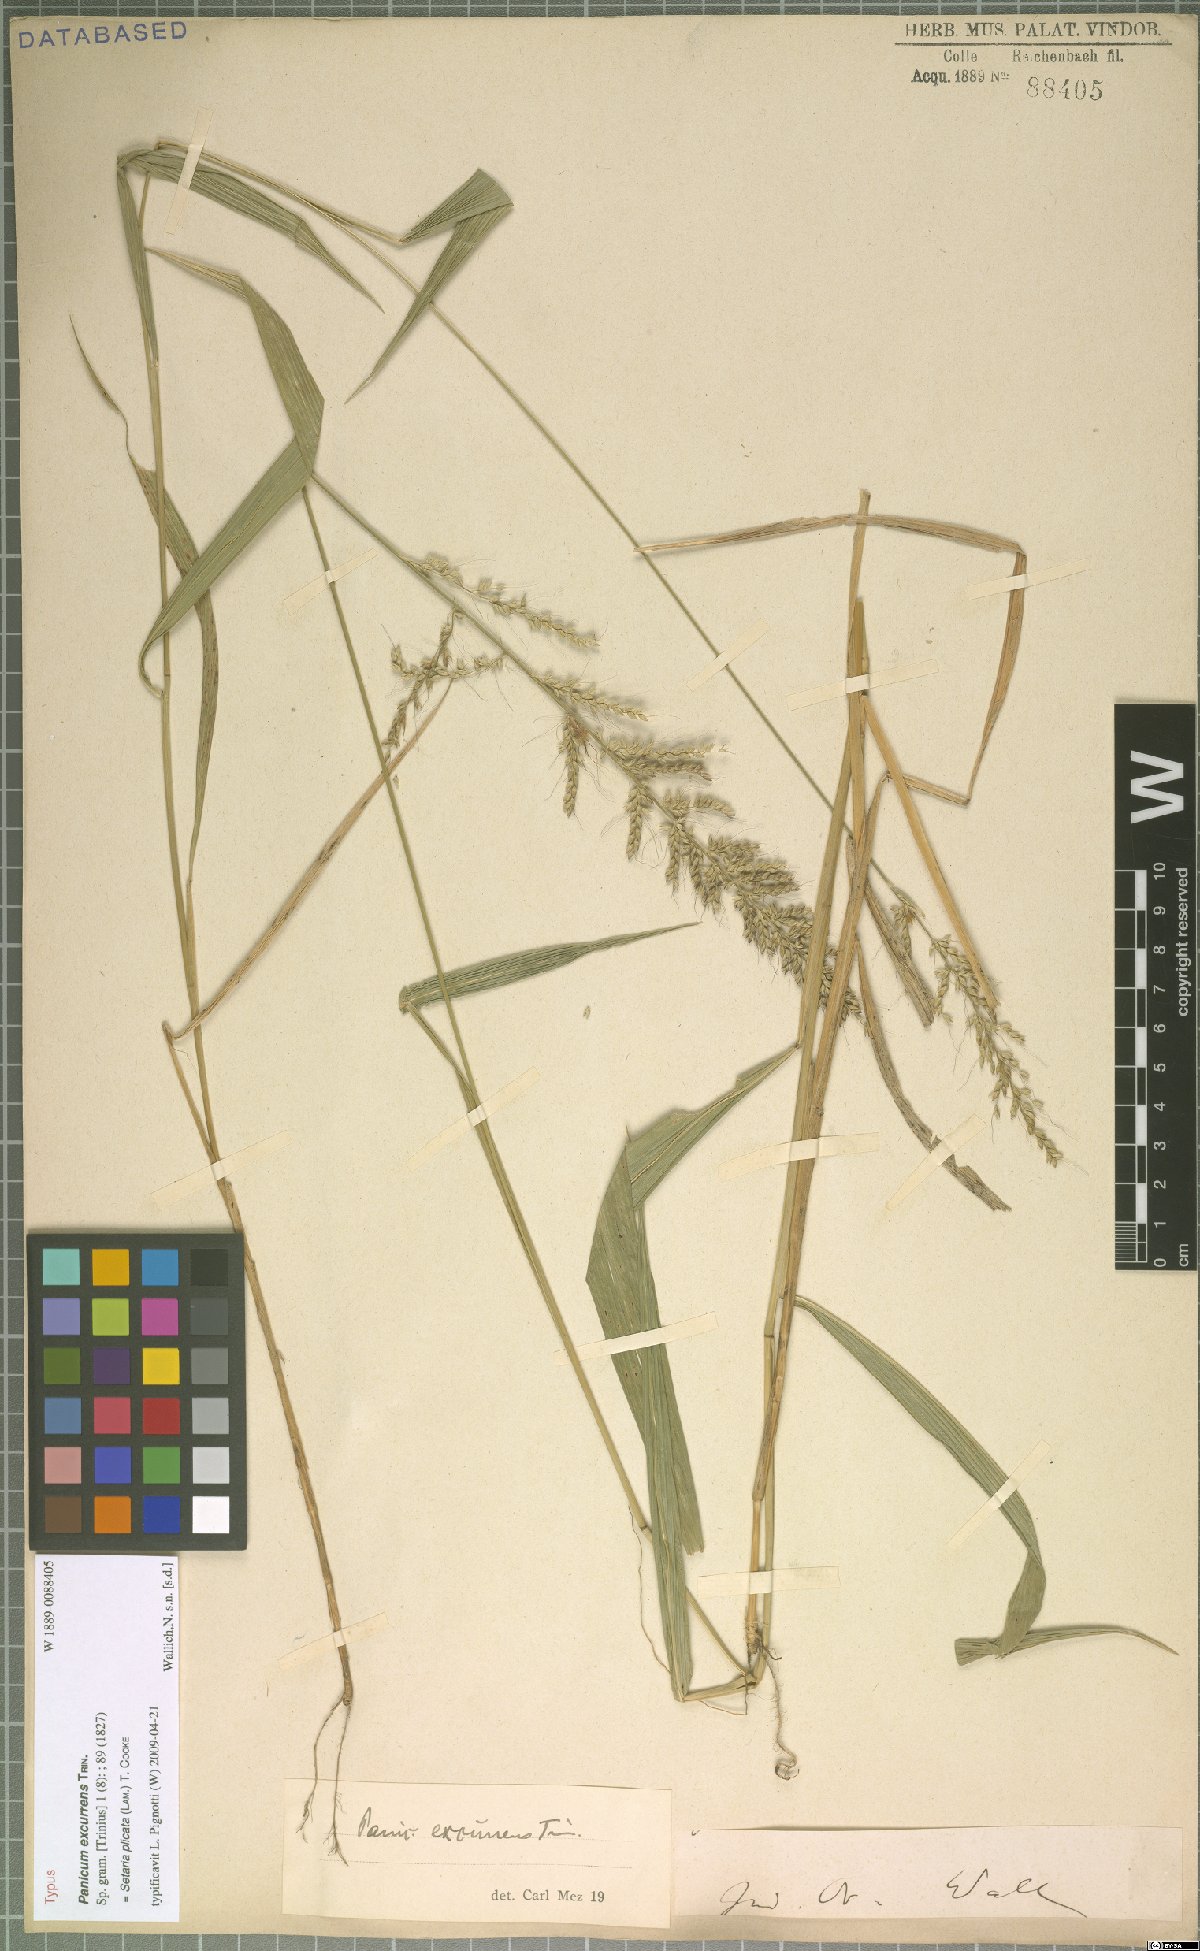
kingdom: Plantae
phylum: Tracheophyta
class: Liliopsida
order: Poales
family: Poaceae
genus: Setaria
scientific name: Setaria plicata
